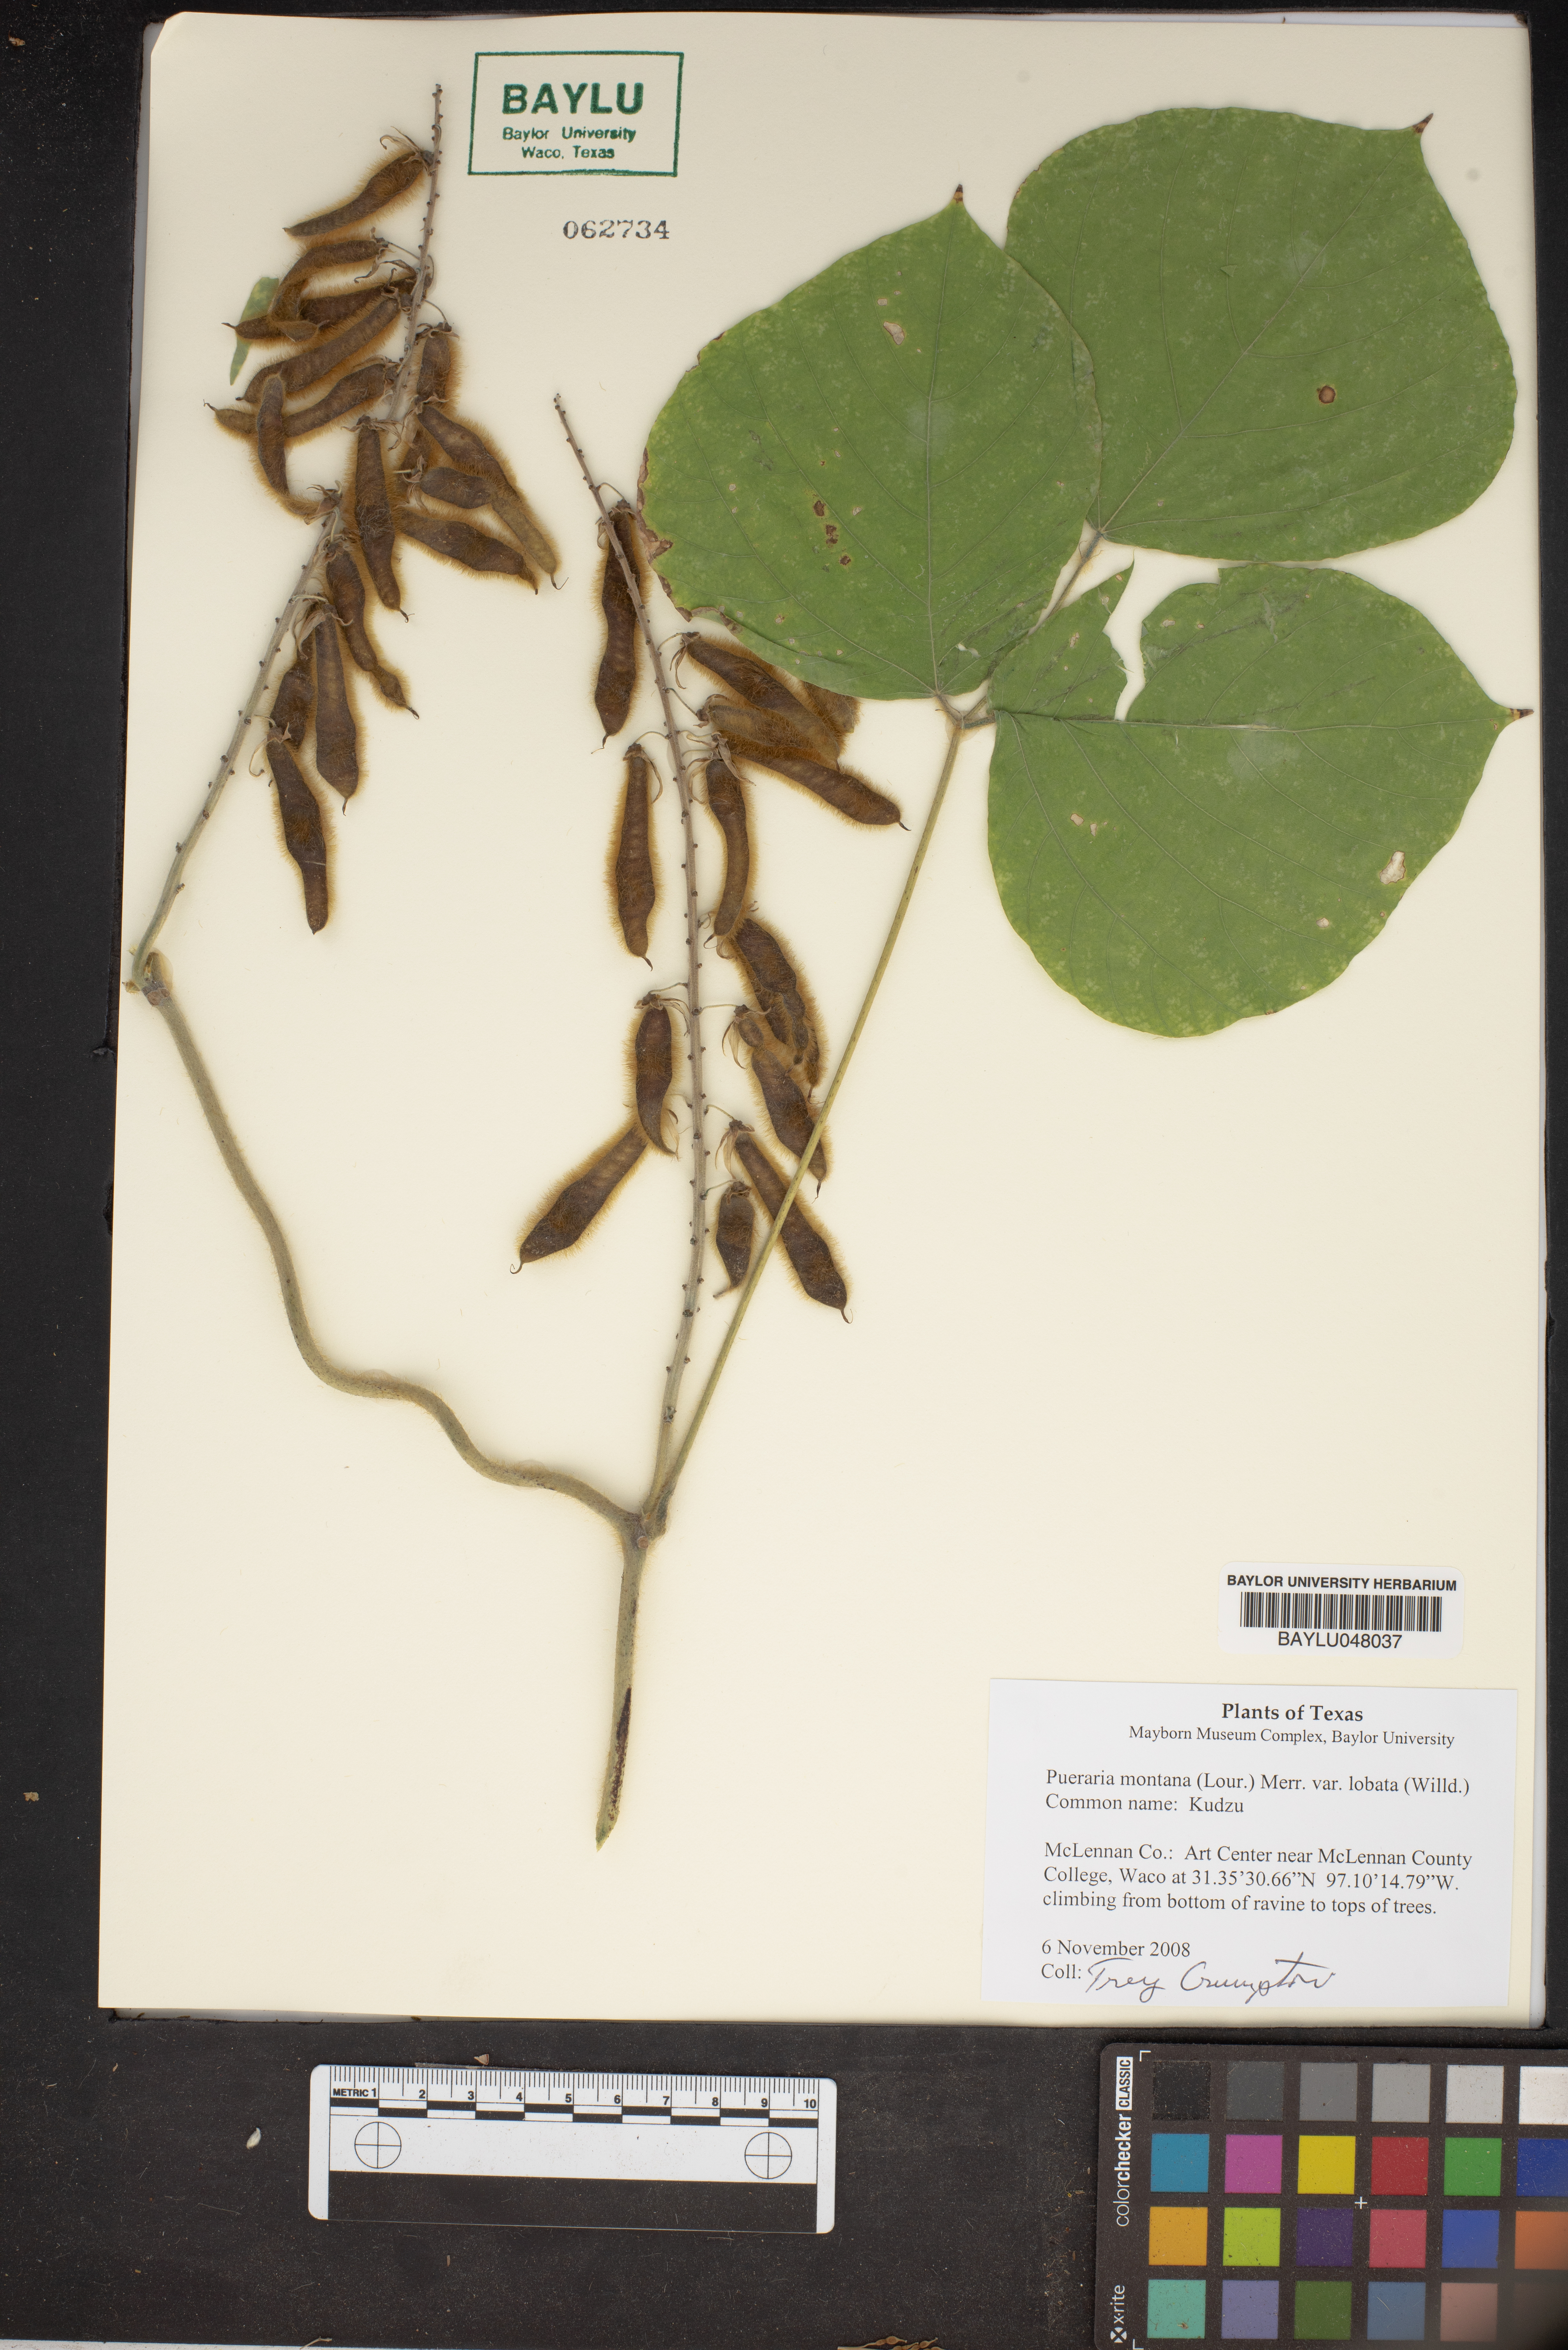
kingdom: Plantae
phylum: Tracheophyta
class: Magnoliopsida
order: Fabales
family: Fabaceae
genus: Pueraria
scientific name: Pueraria montana
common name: Kudzu
